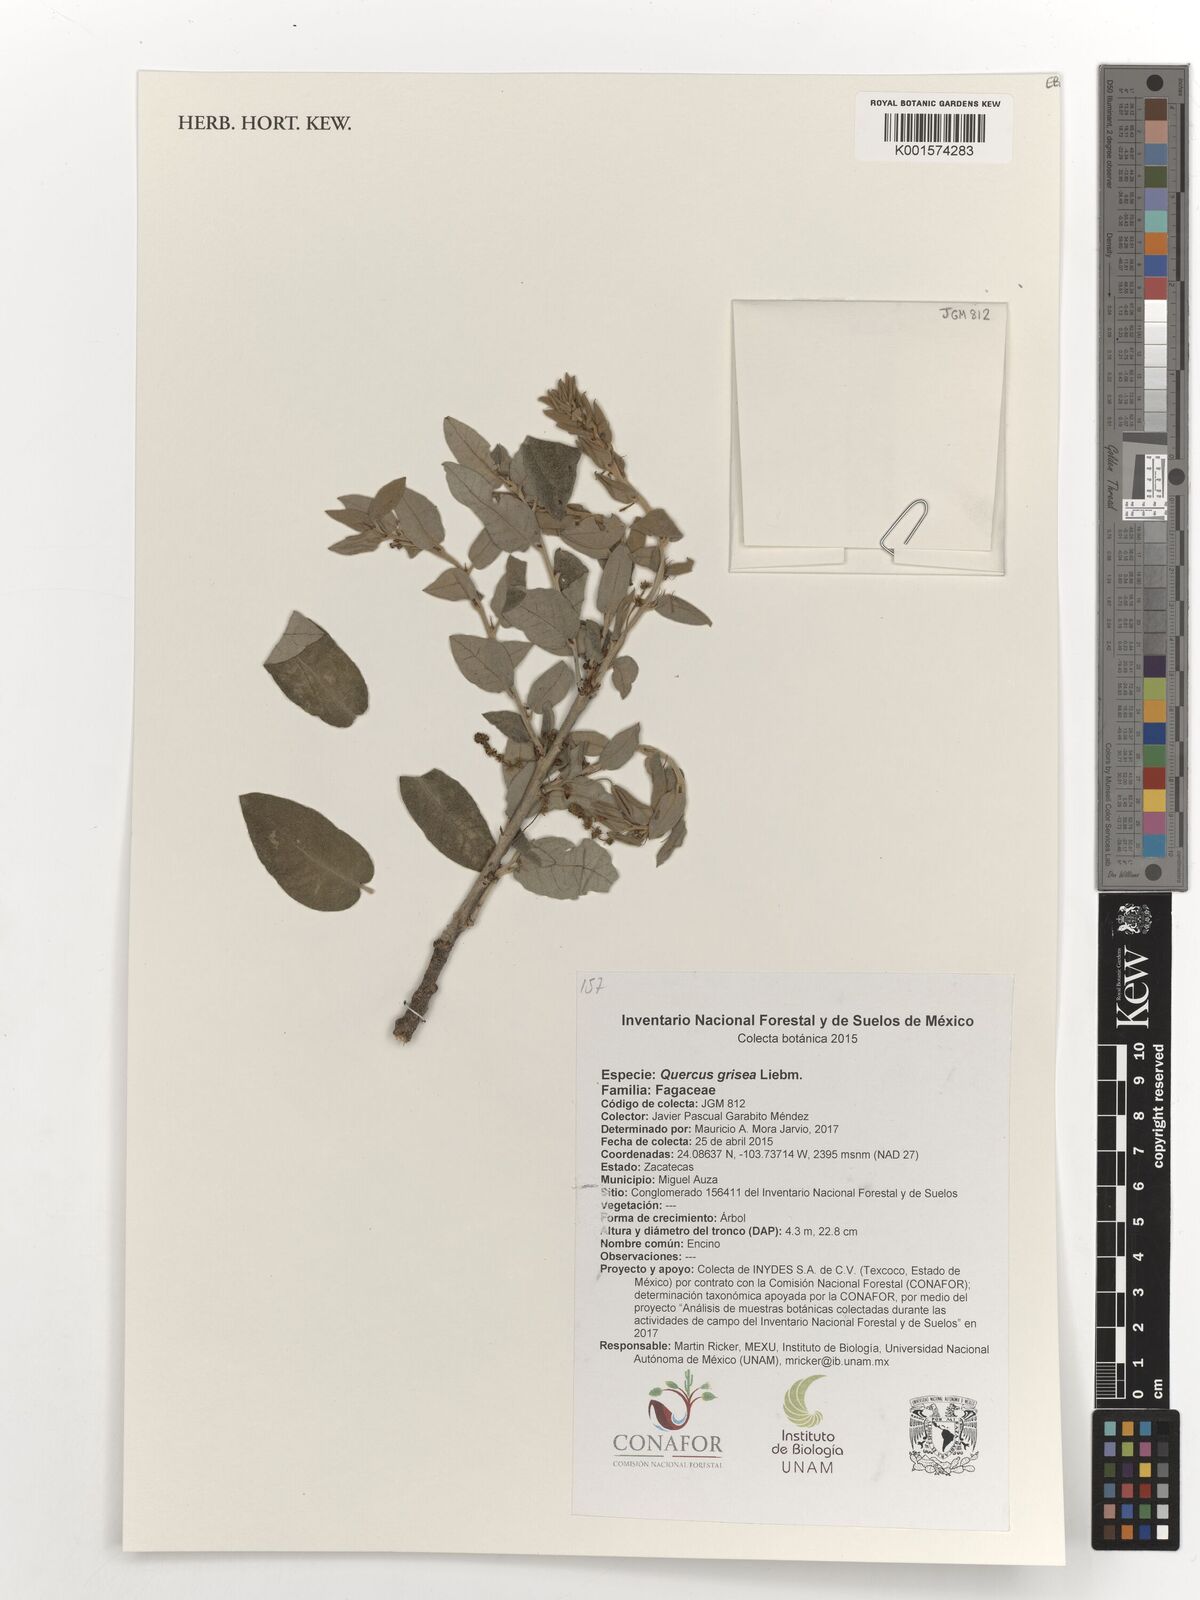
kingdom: Plantae
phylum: Tracheophyta
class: Magnoliopsida
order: Fagales
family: Fagaceae
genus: Quercus
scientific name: Quercus grisea
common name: Gray oak
